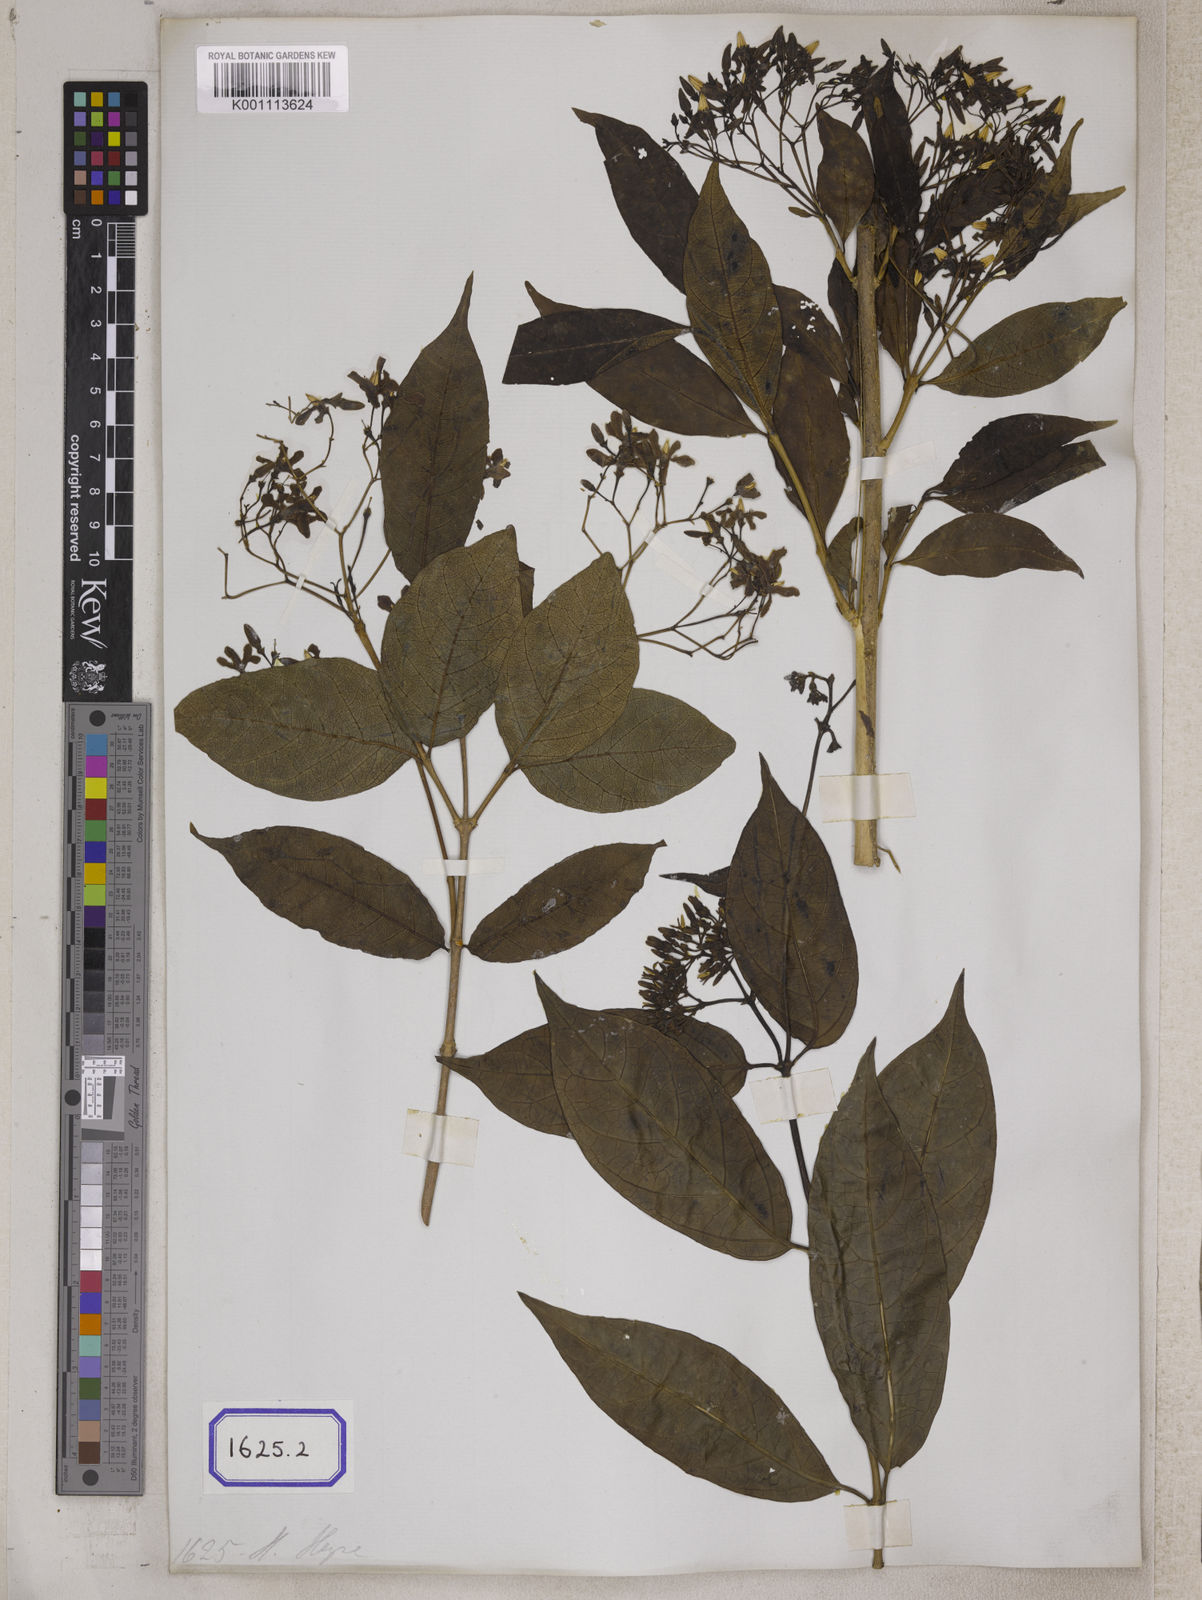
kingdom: Plantae
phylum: Tracheophyta
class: Magnoliopsida
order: Gentianales
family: Apocynaceae
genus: Wrightia
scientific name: Wrightia tinctoria
